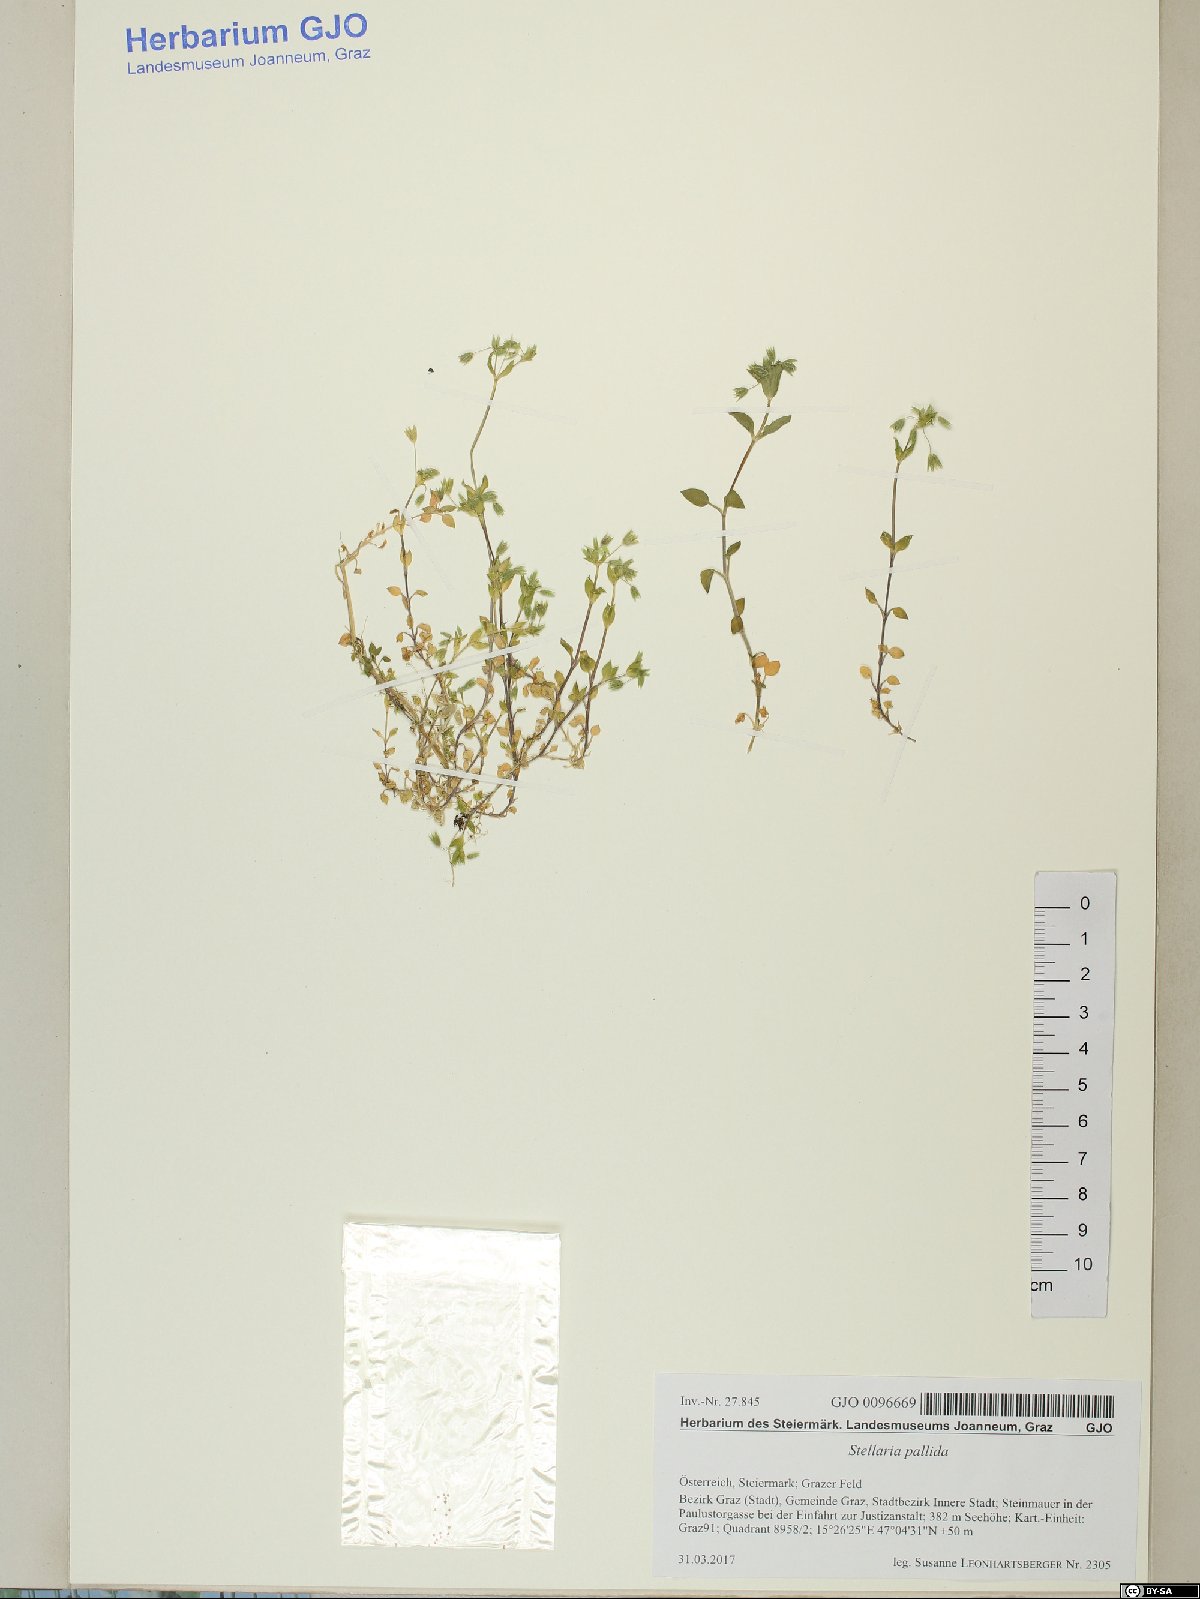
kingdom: Plantae
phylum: Tracheophyta
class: Magnoliopsida
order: Caryophyllales
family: Caryophyllaceae
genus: Stellaria
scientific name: Stellaria apetala
